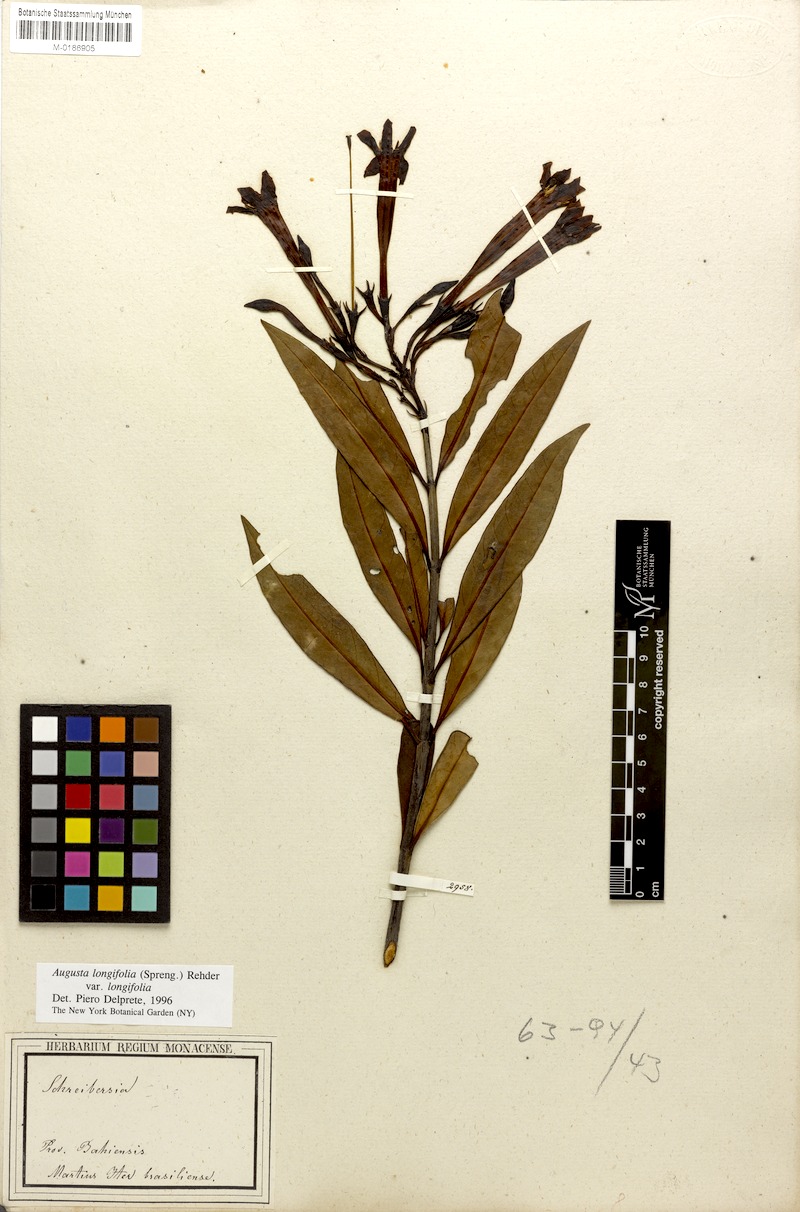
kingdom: Plantae
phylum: Tracheophyta
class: Magnoliopsida
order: Gentianales
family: Rubiaceae
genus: Augusta
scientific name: Augusta longifolia
